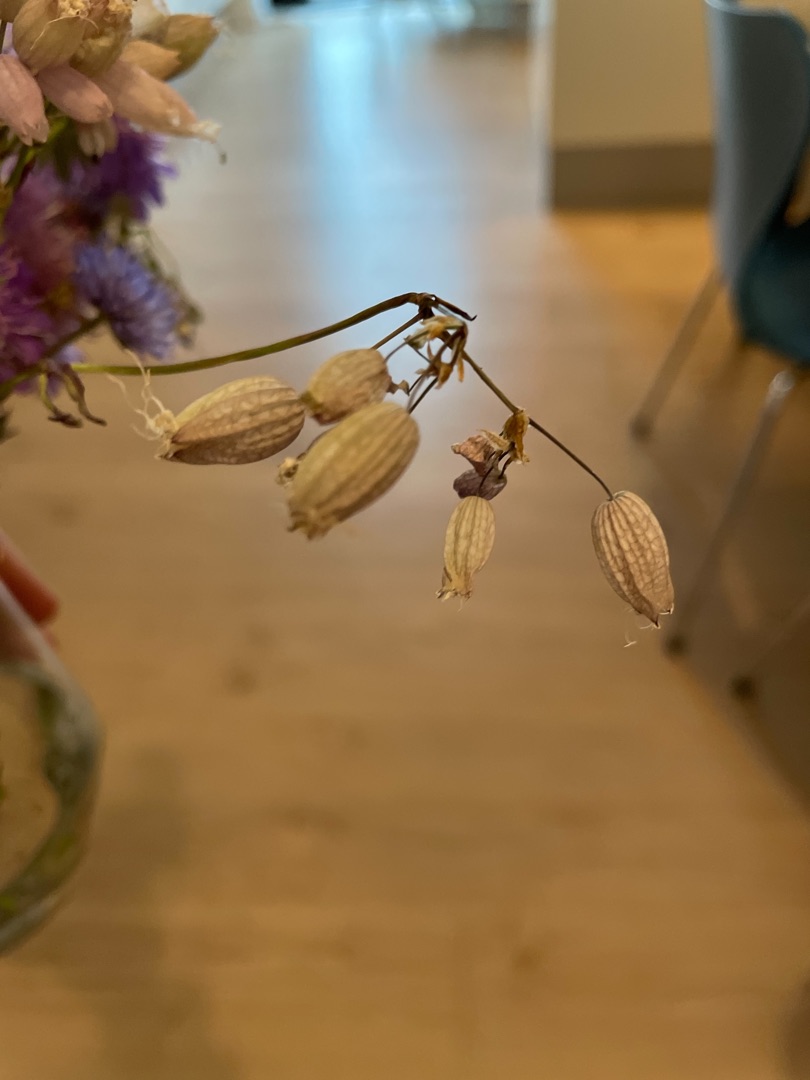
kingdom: Plantae
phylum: Tracheophyta
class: Magnoliopsida
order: Caryophyllales
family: Caryophyllaceae
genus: Silene
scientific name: Silene vulgaris
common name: Blæresmælde
